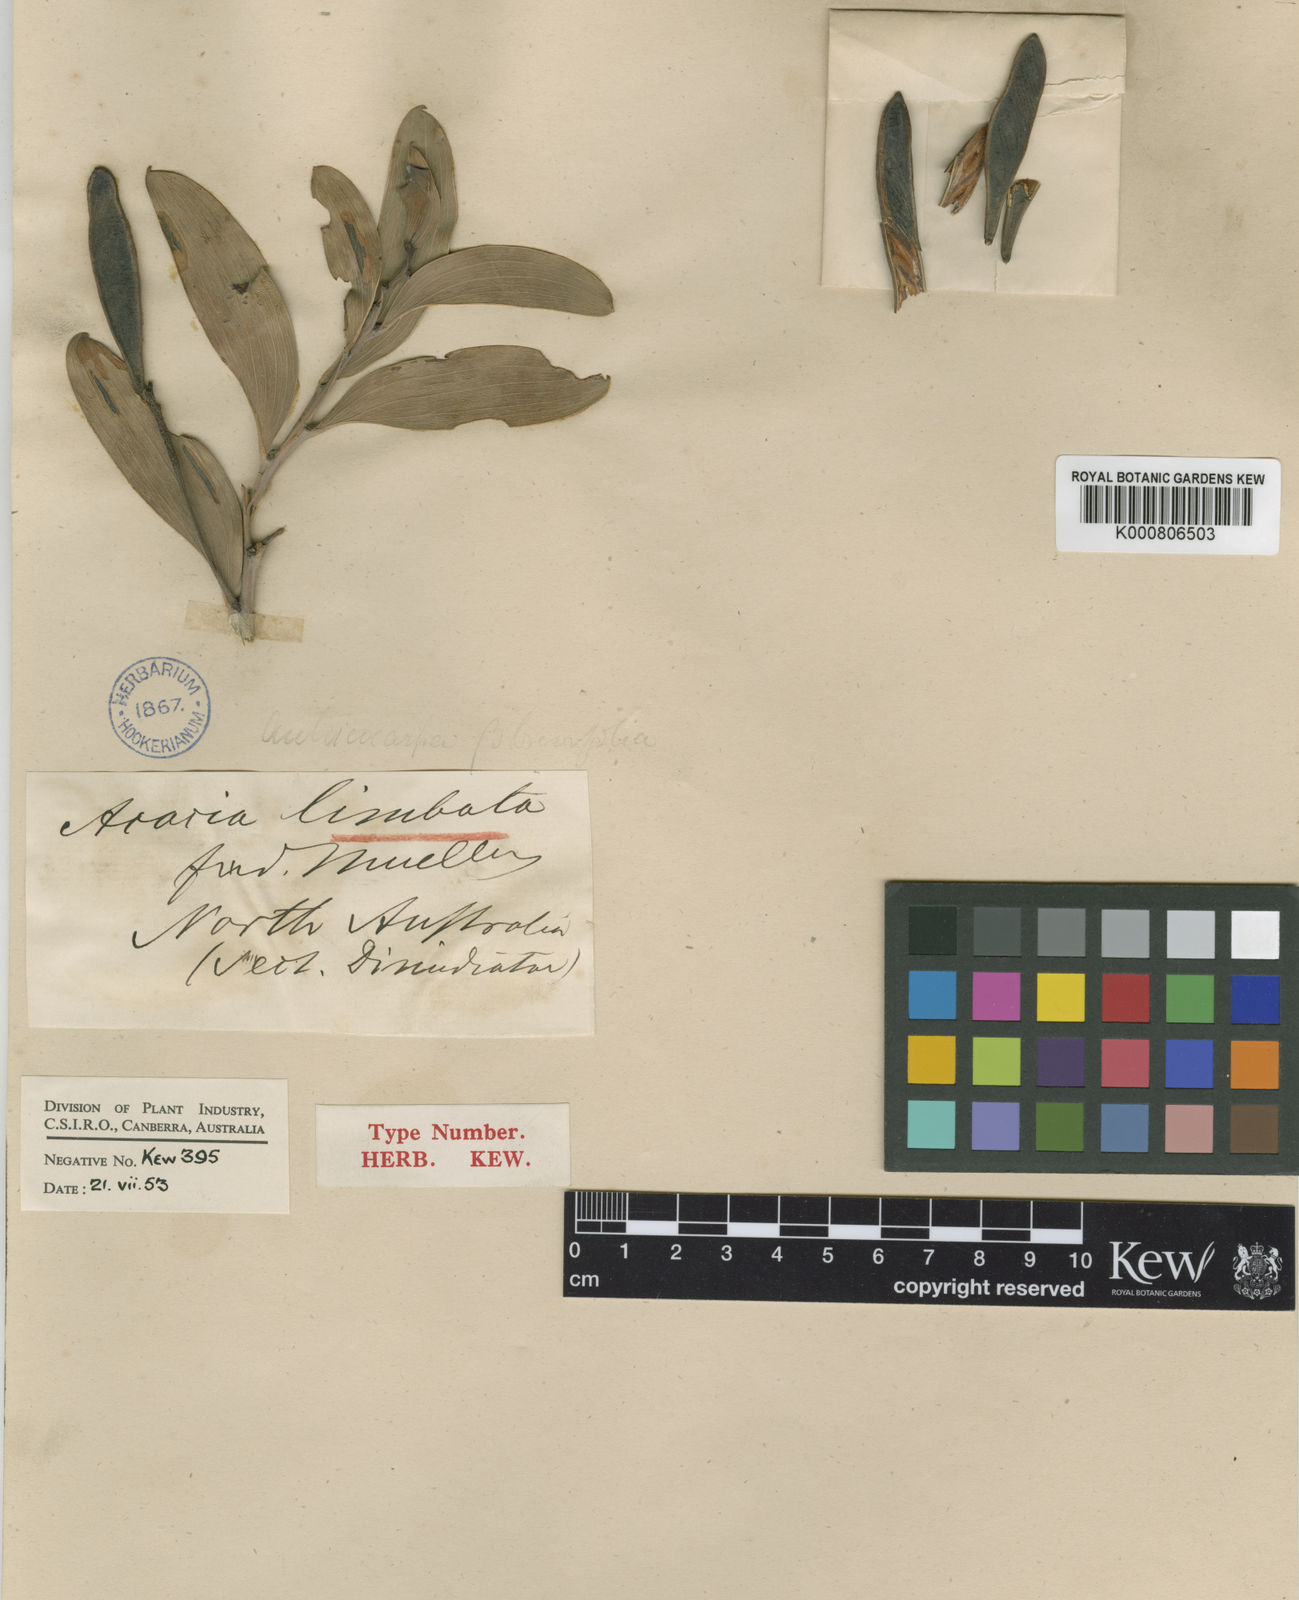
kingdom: Plantae
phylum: Tracheophyta
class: Magnoliopsida
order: Fabales
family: Fabaceae
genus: Acacia
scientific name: Acacia limbata
